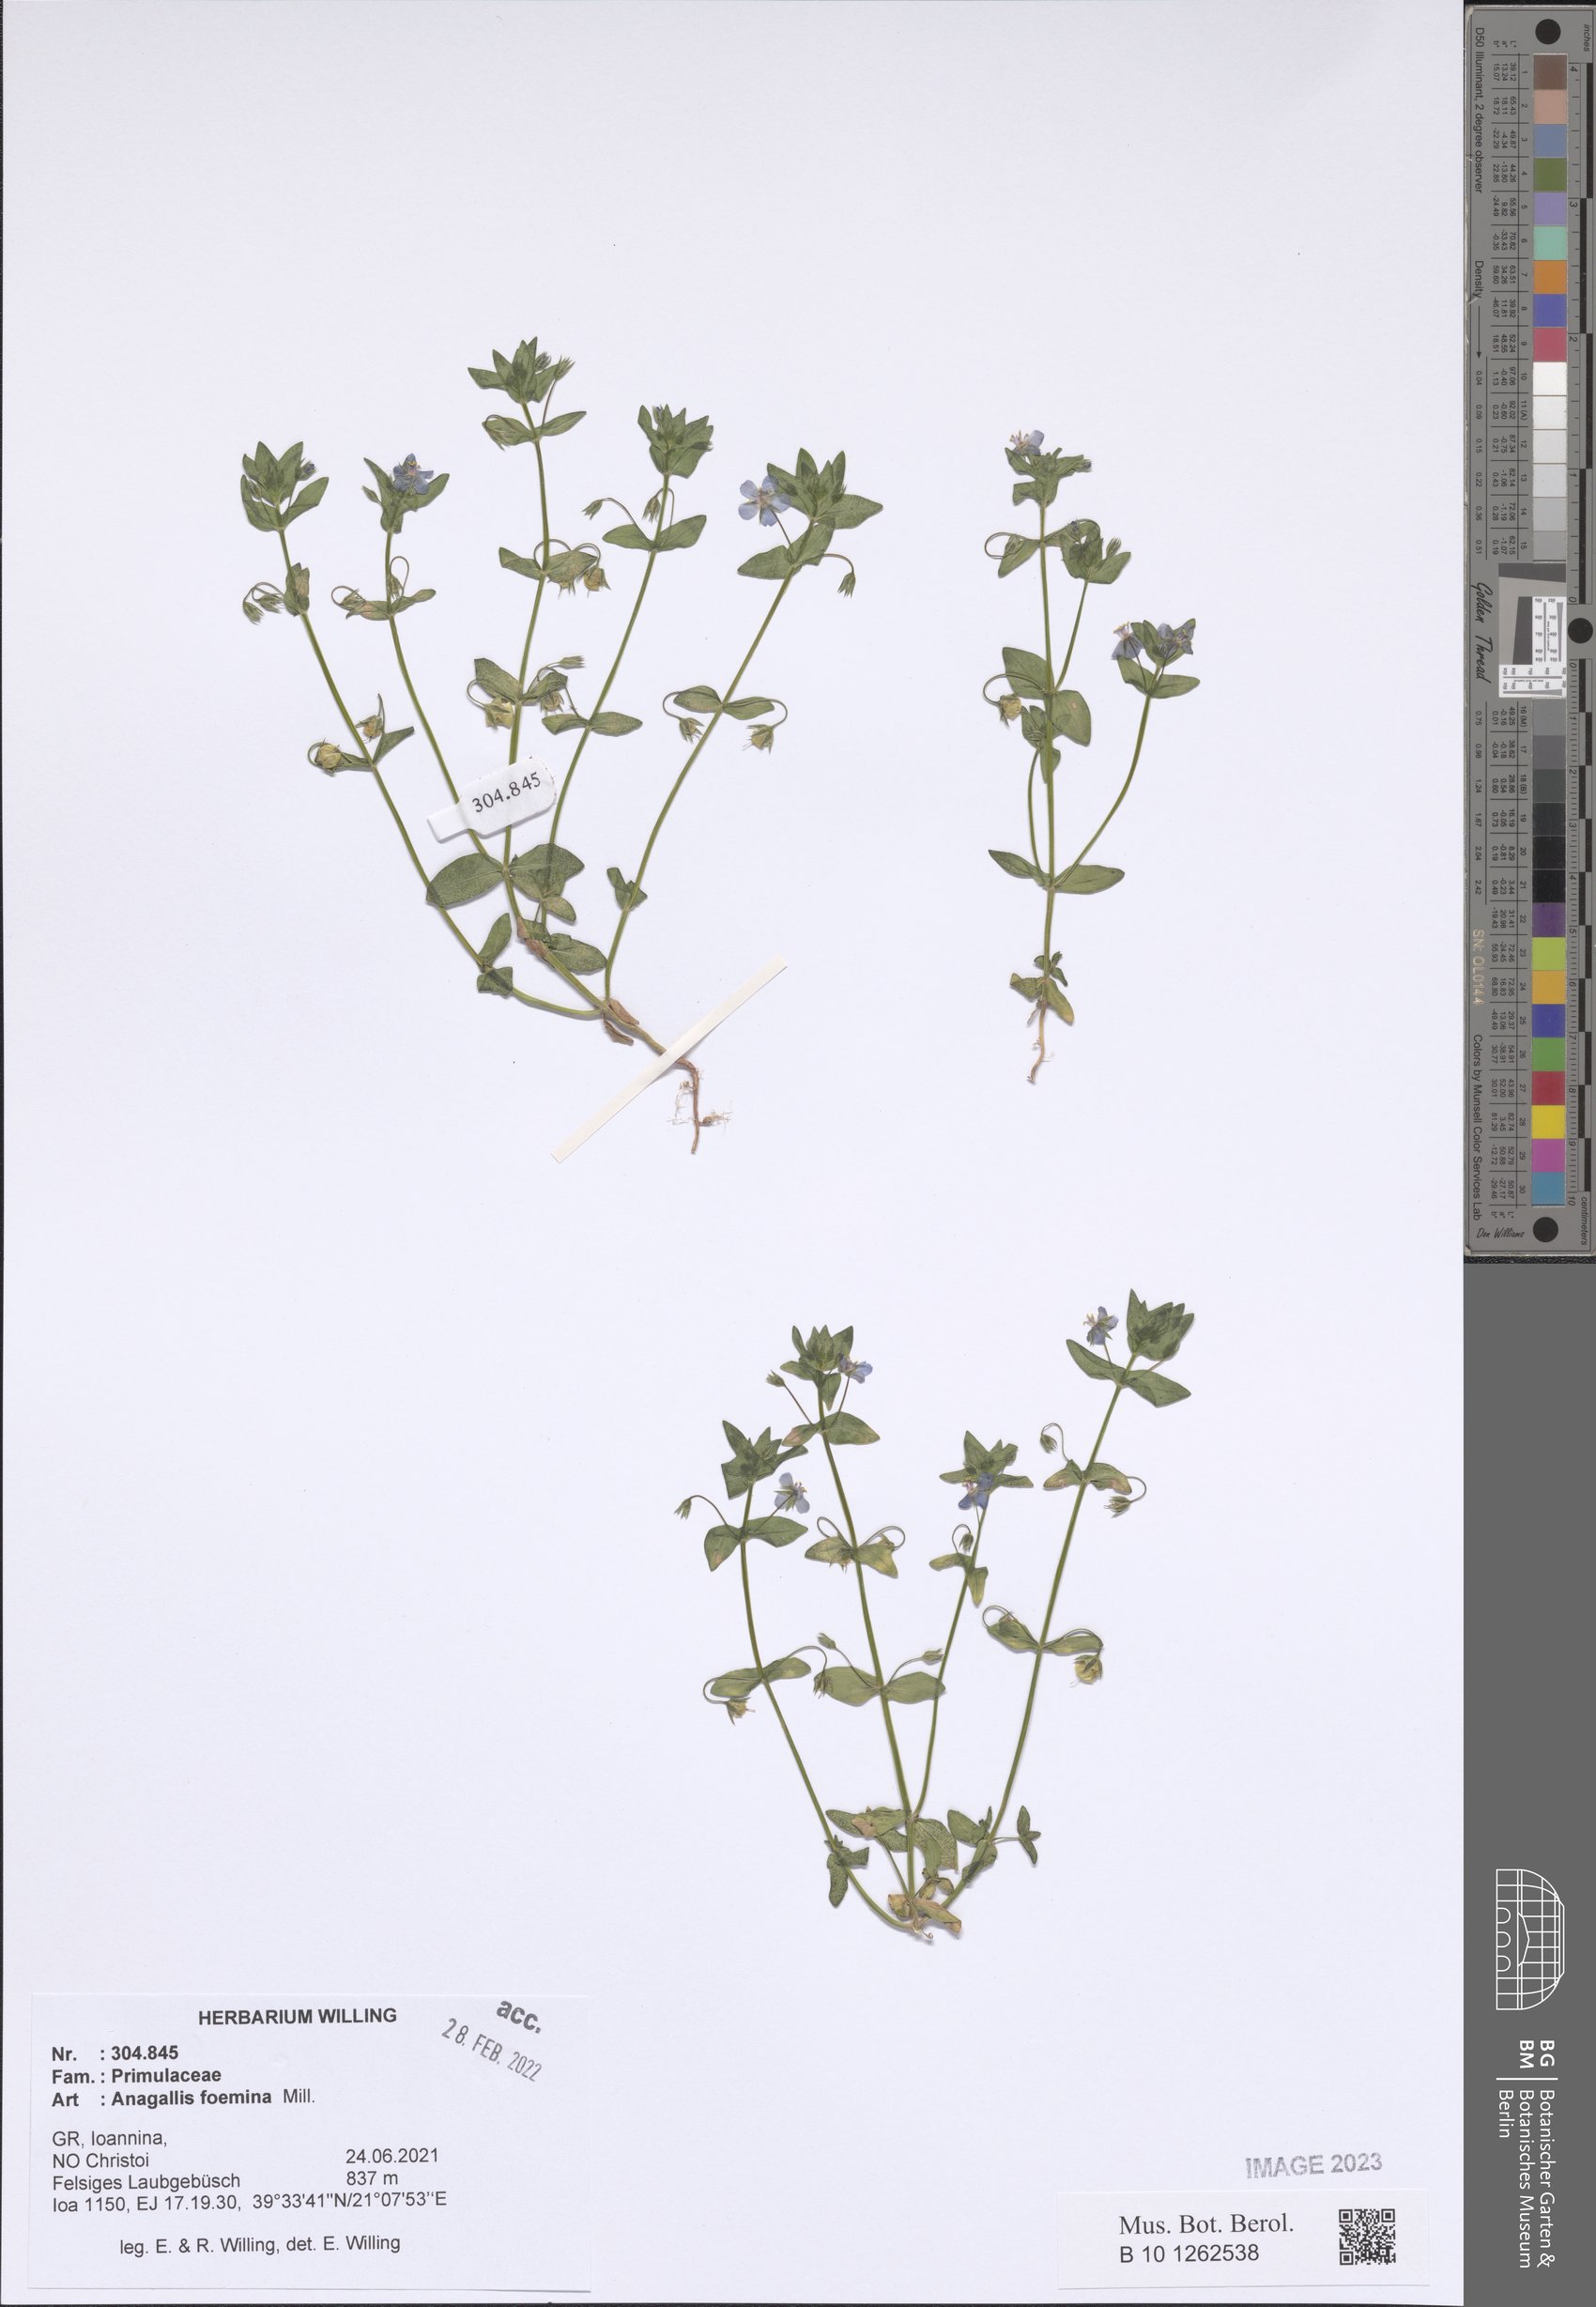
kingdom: Plantae
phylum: Tracheophyta
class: Magnoliopsida
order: Ericales
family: Primulaceae
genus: Lysimachia
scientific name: Lysimachia foemina
